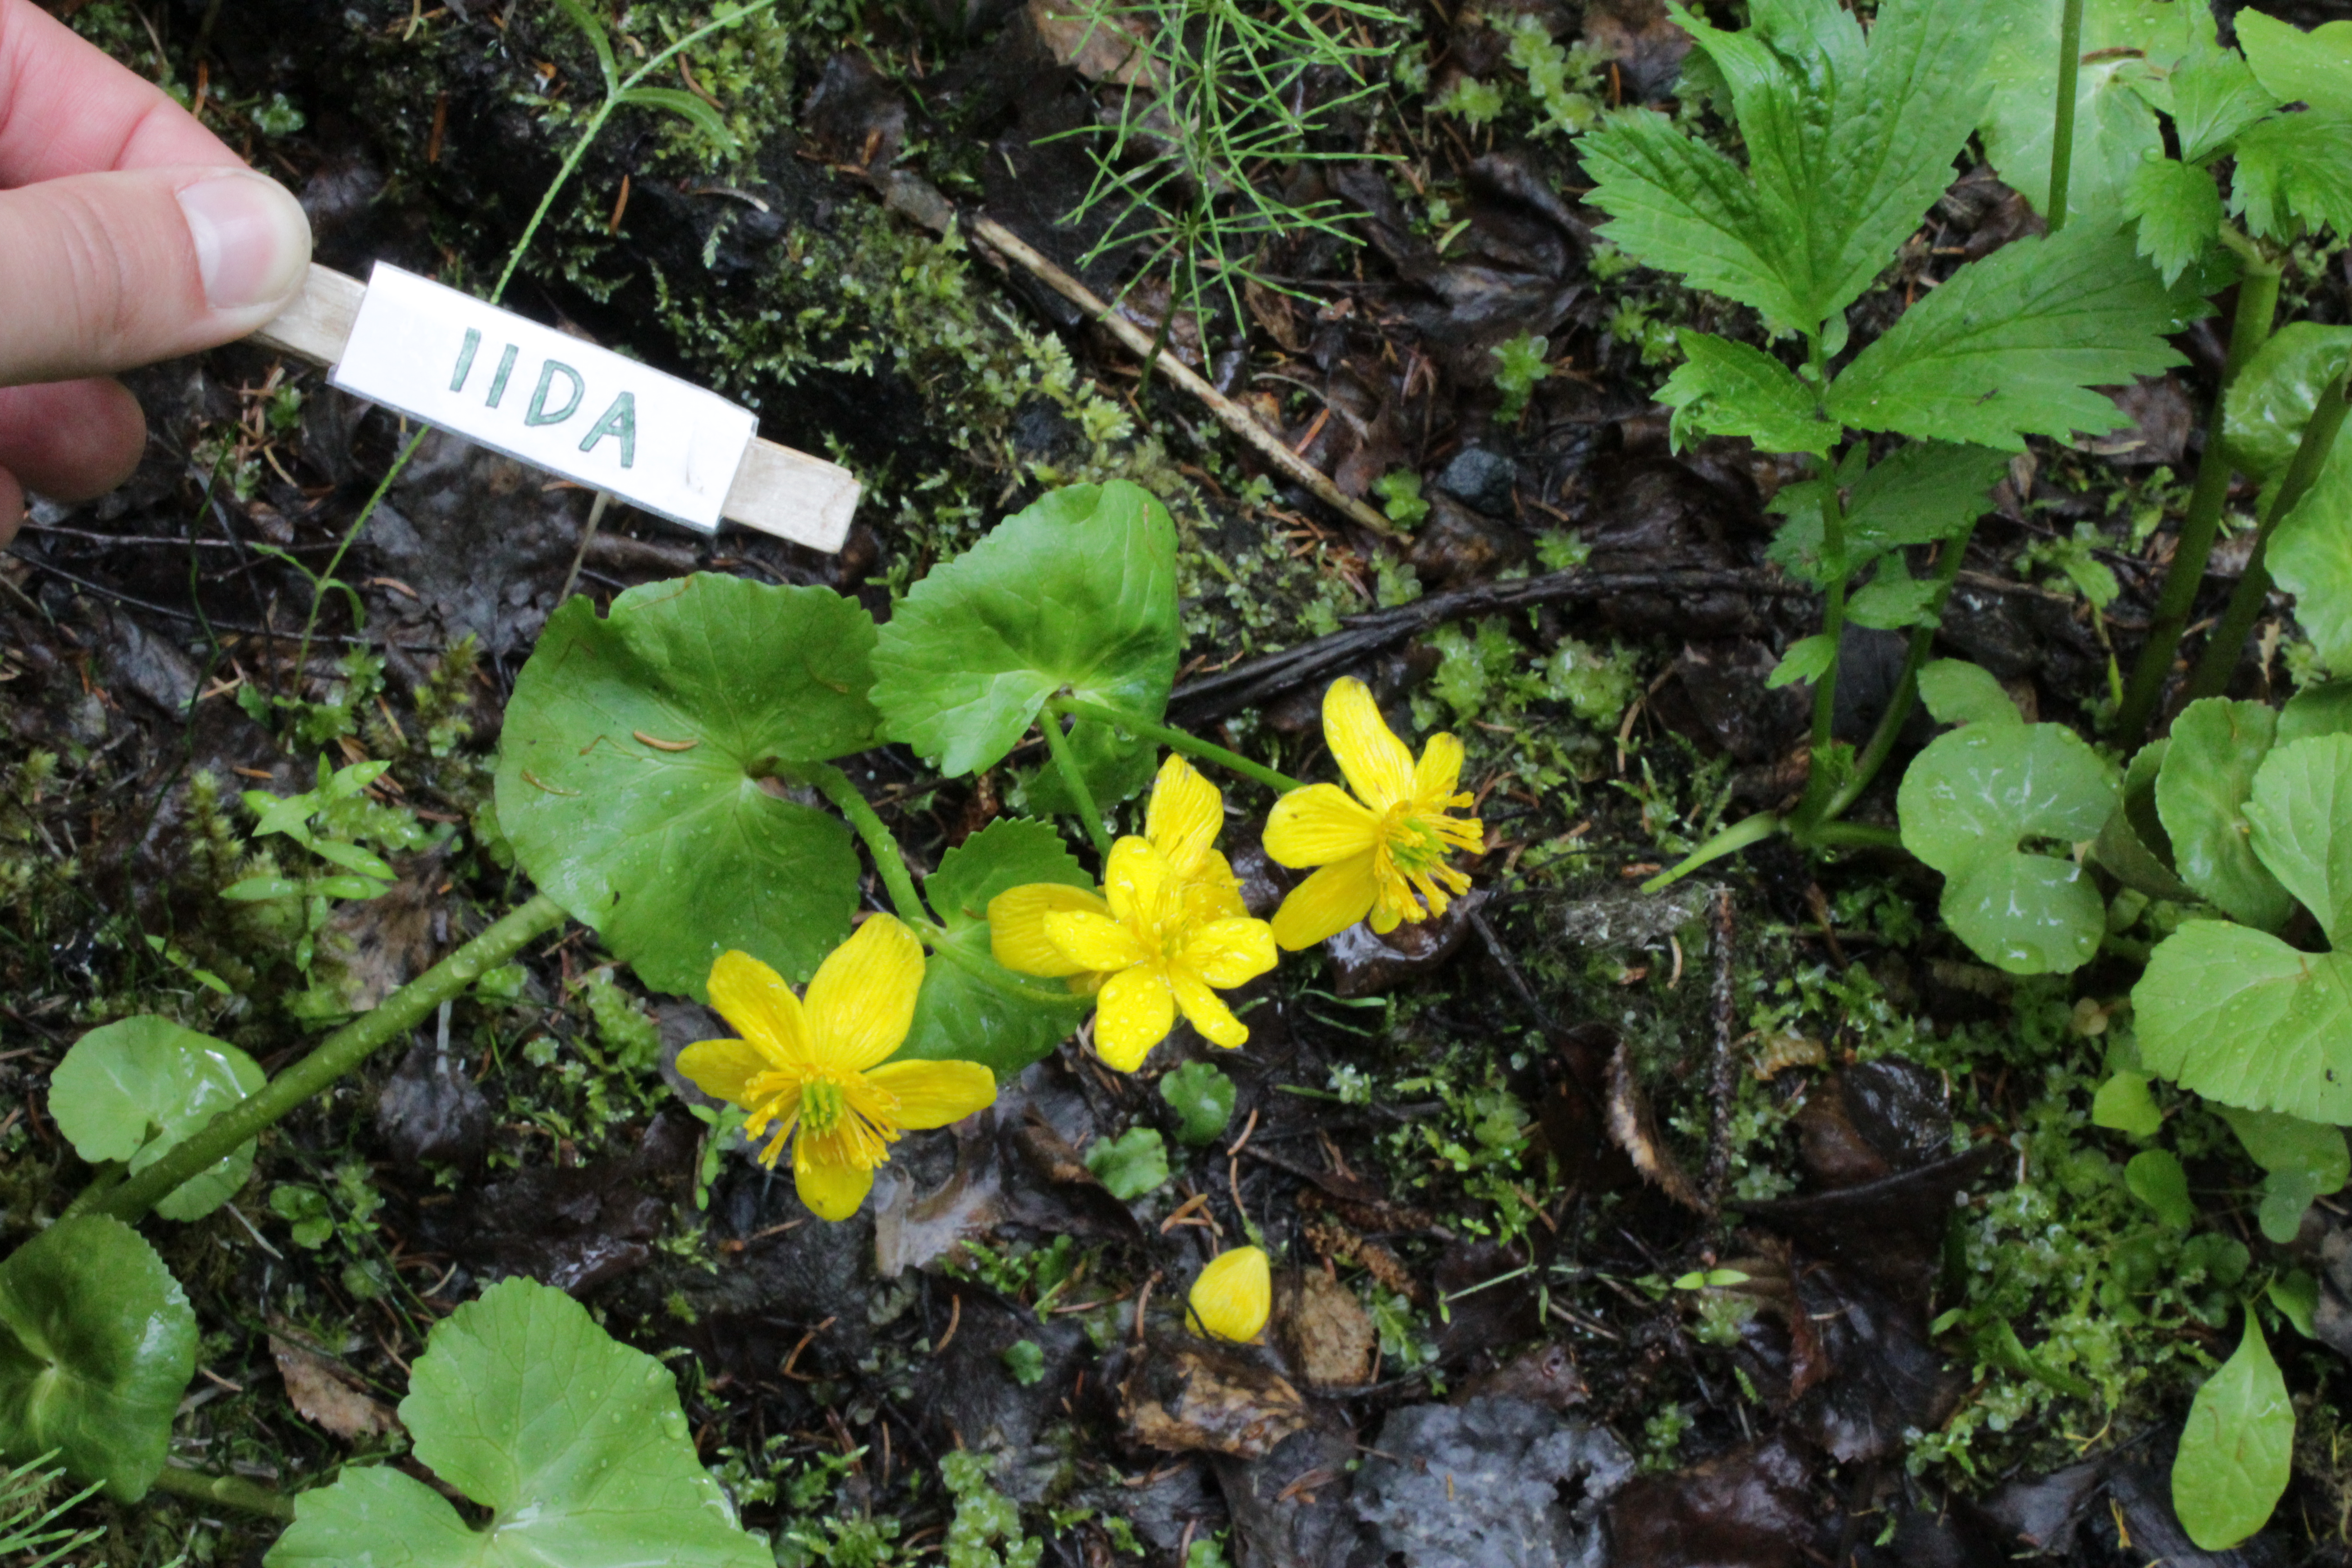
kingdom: Plantae
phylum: Tracheophyta
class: Magnoliopsida
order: Ranunculales
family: Ranunculaceae
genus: Caltha
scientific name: Caltha palustris
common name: Marsh marigold
